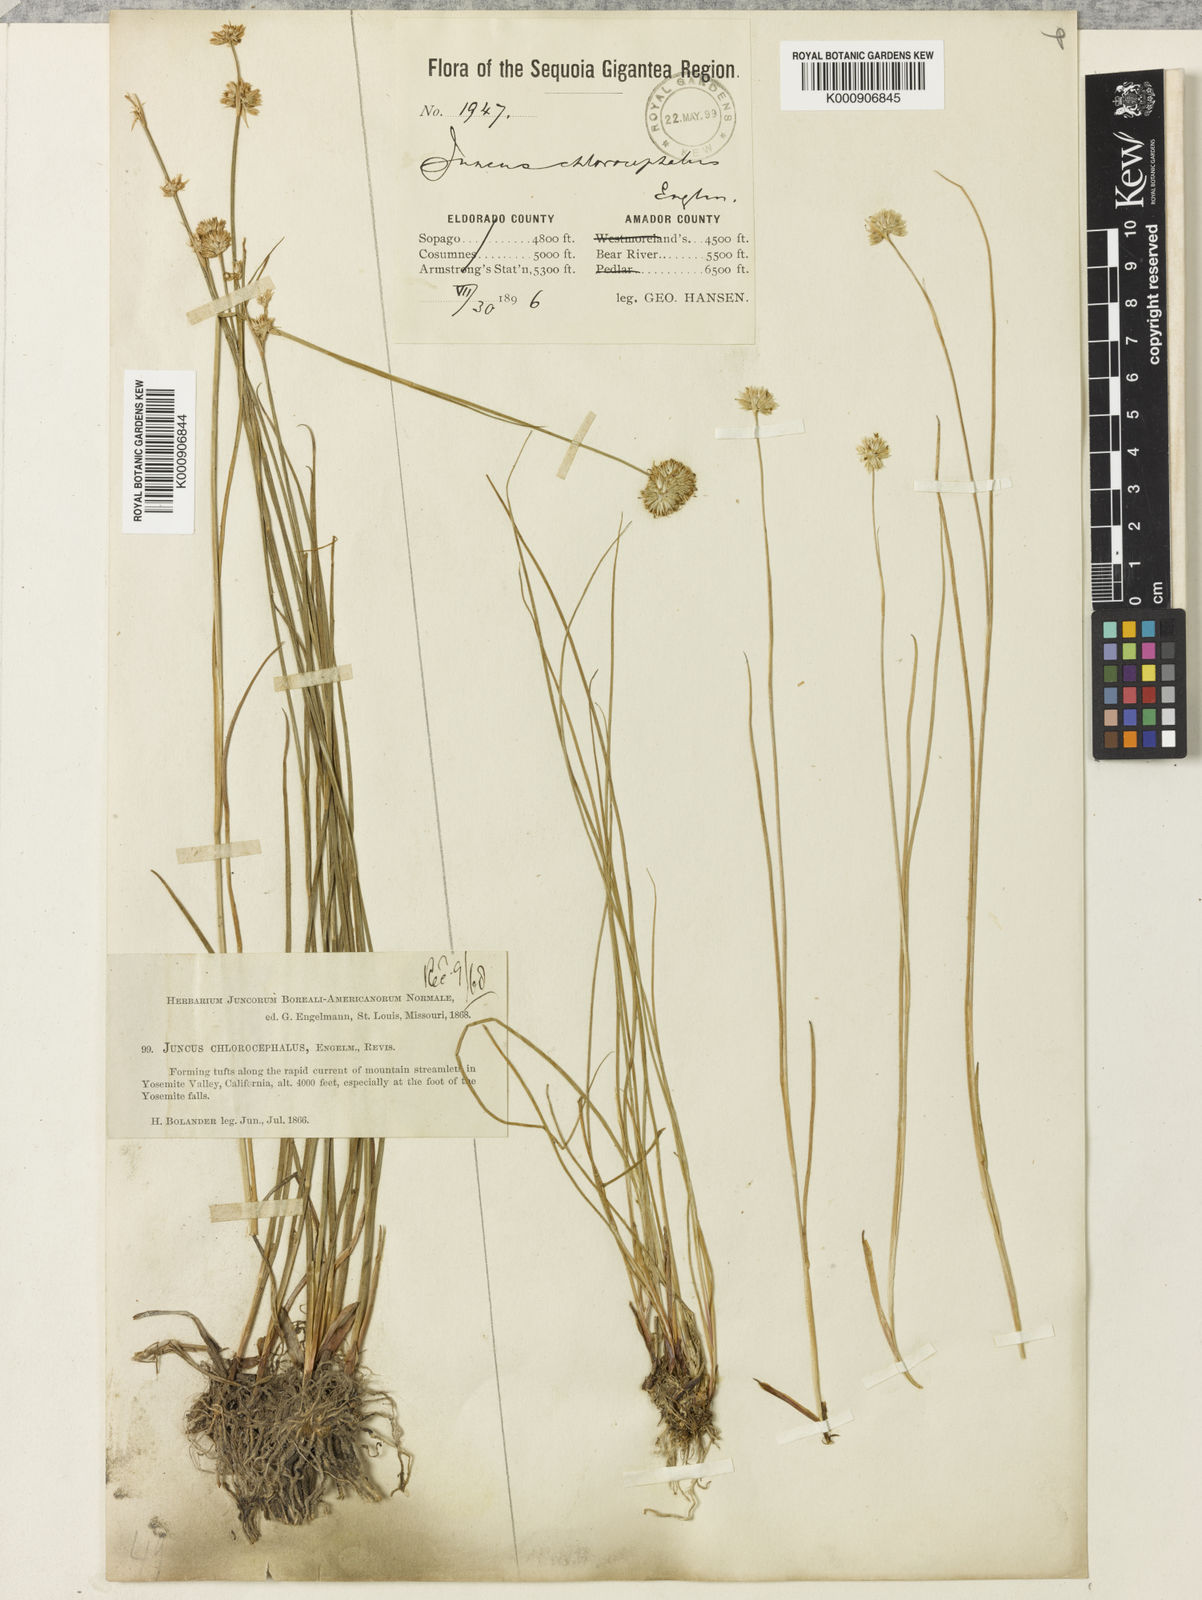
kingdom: Plantae
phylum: Tracheophyta
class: Liliopsida
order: Poales
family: Juncaceae
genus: Juncus
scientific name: Juncus chlorocephalus
